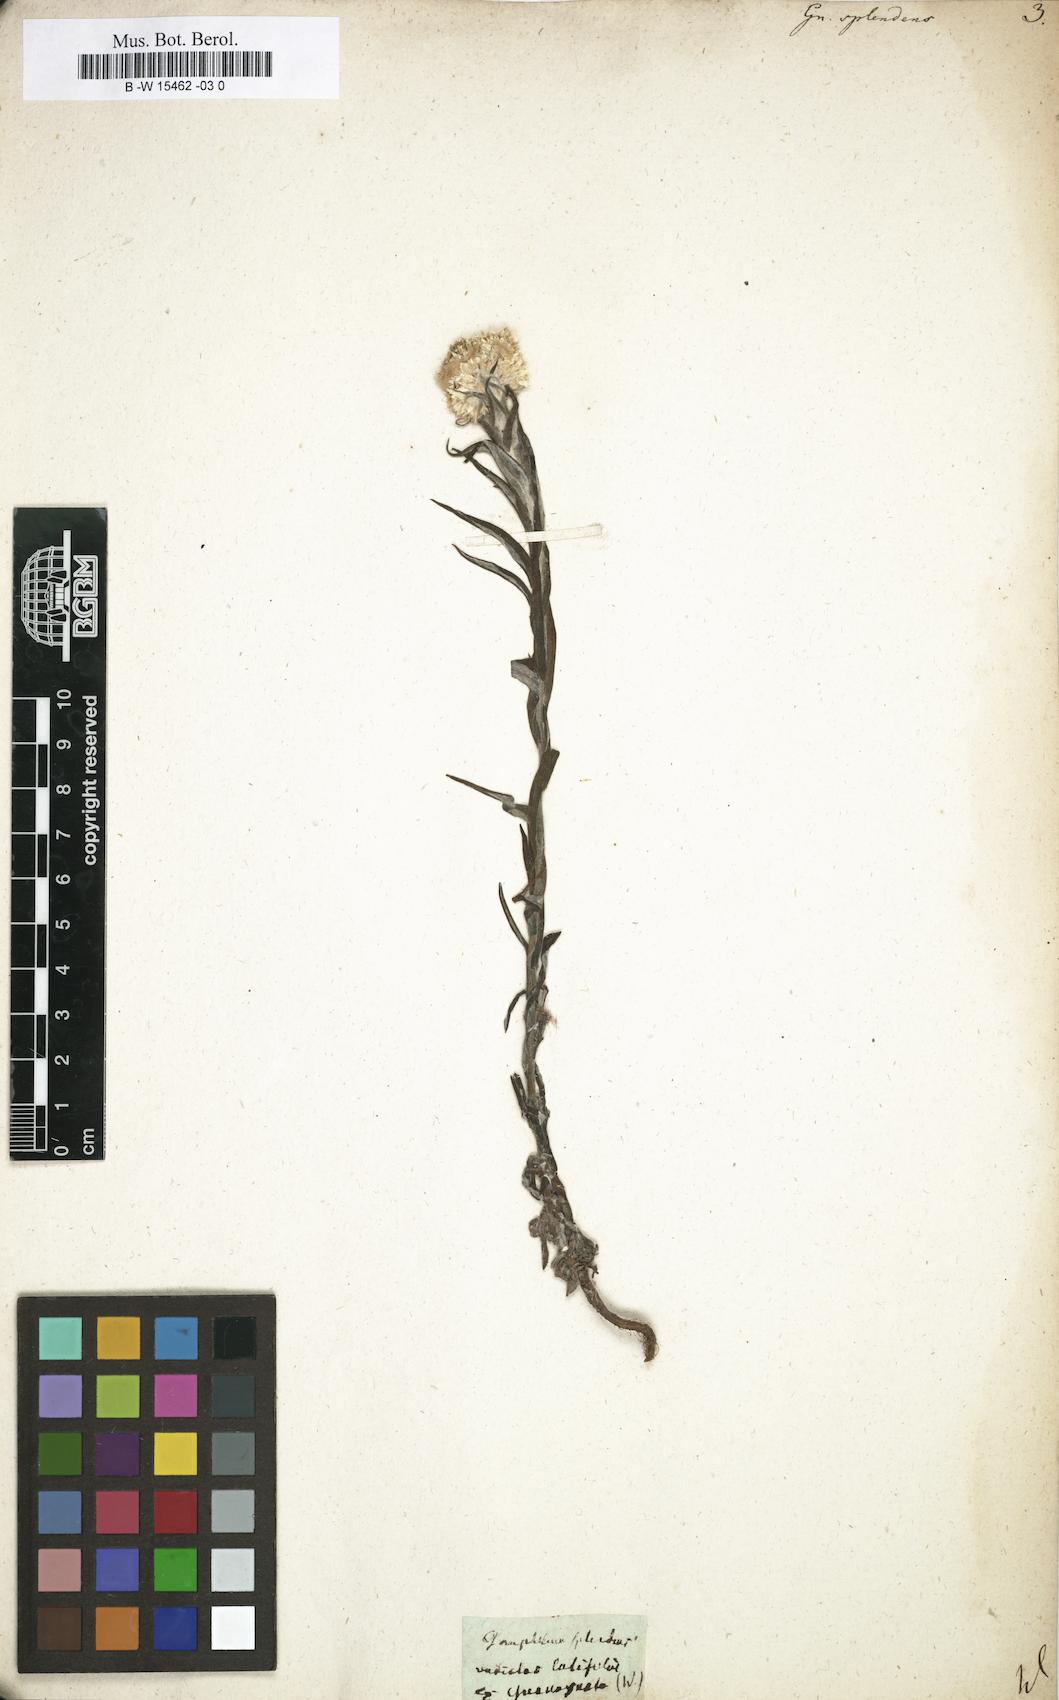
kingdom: Plantae
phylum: Tracheophyta
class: Magnoliopsida
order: Asterales
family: Asteraceae
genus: Gnaphalium
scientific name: Gnaphalium splendens
